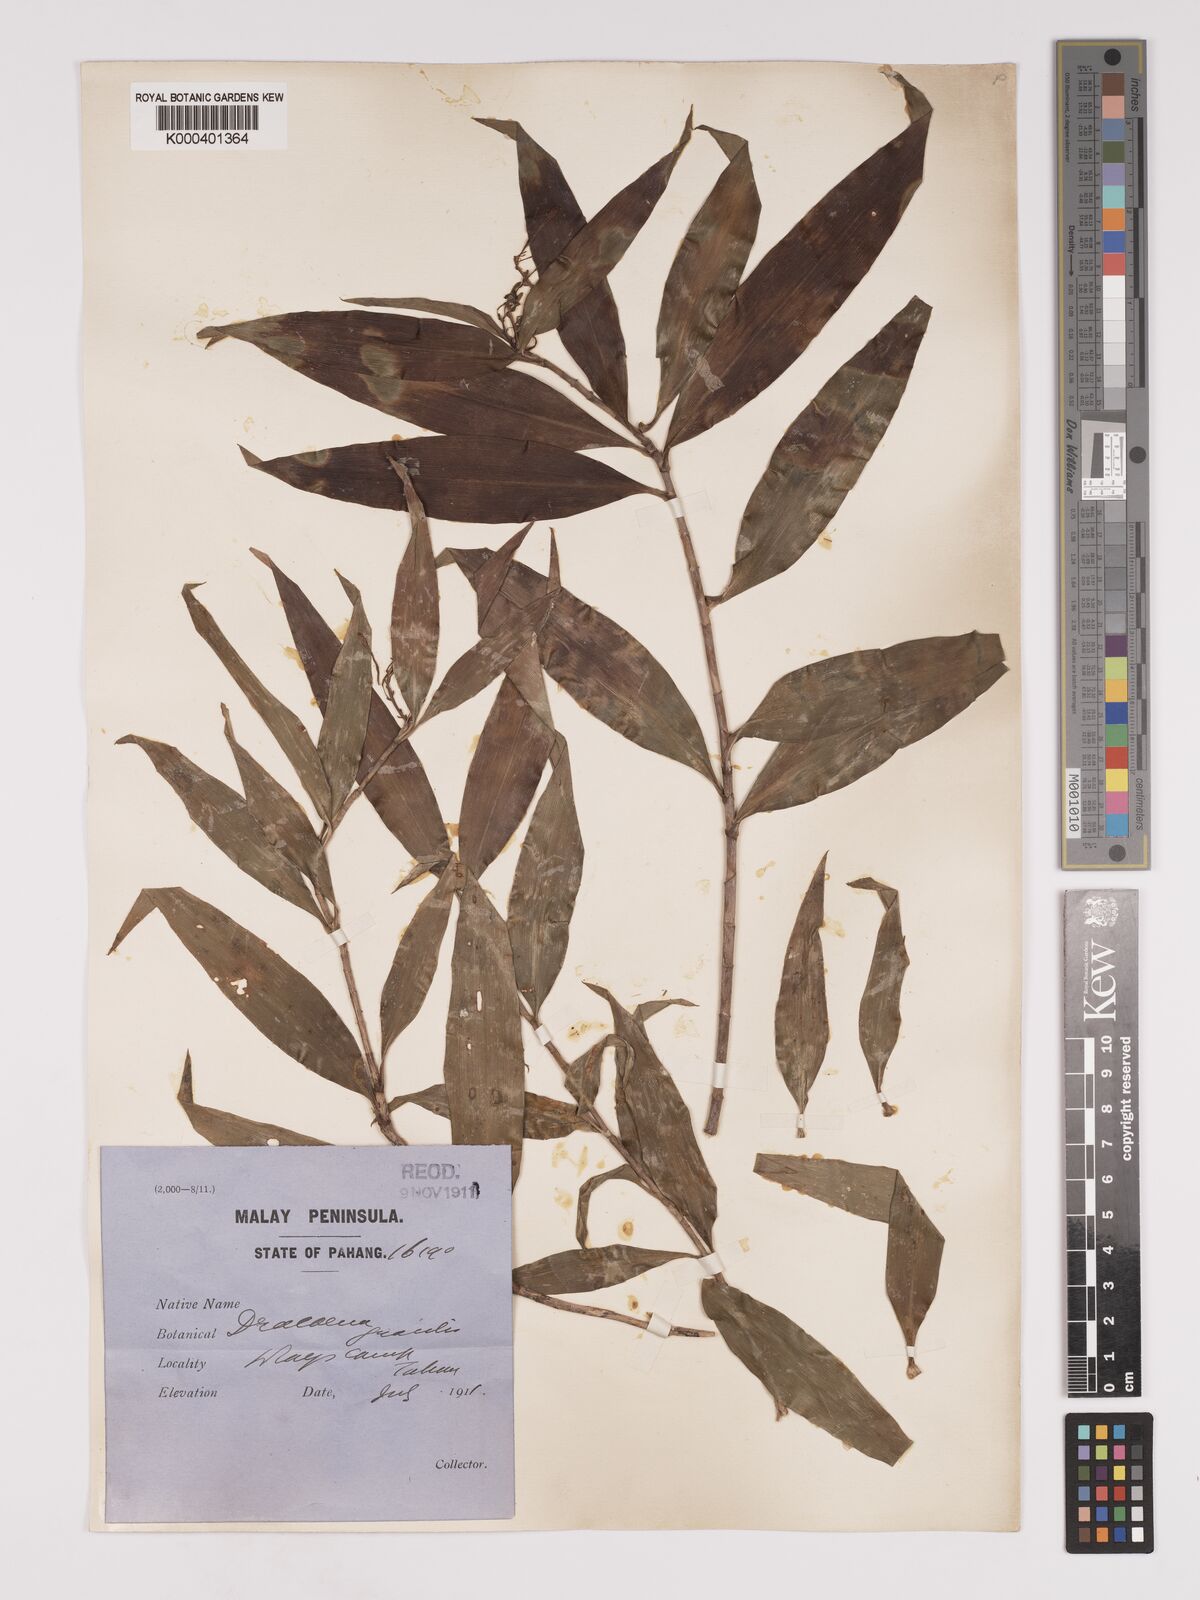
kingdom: Plantae
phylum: Tracheophyta
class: Liliopsida
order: Asparagales
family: Asparagaceae
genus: Dracaena
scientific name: Dracaena elliptica
